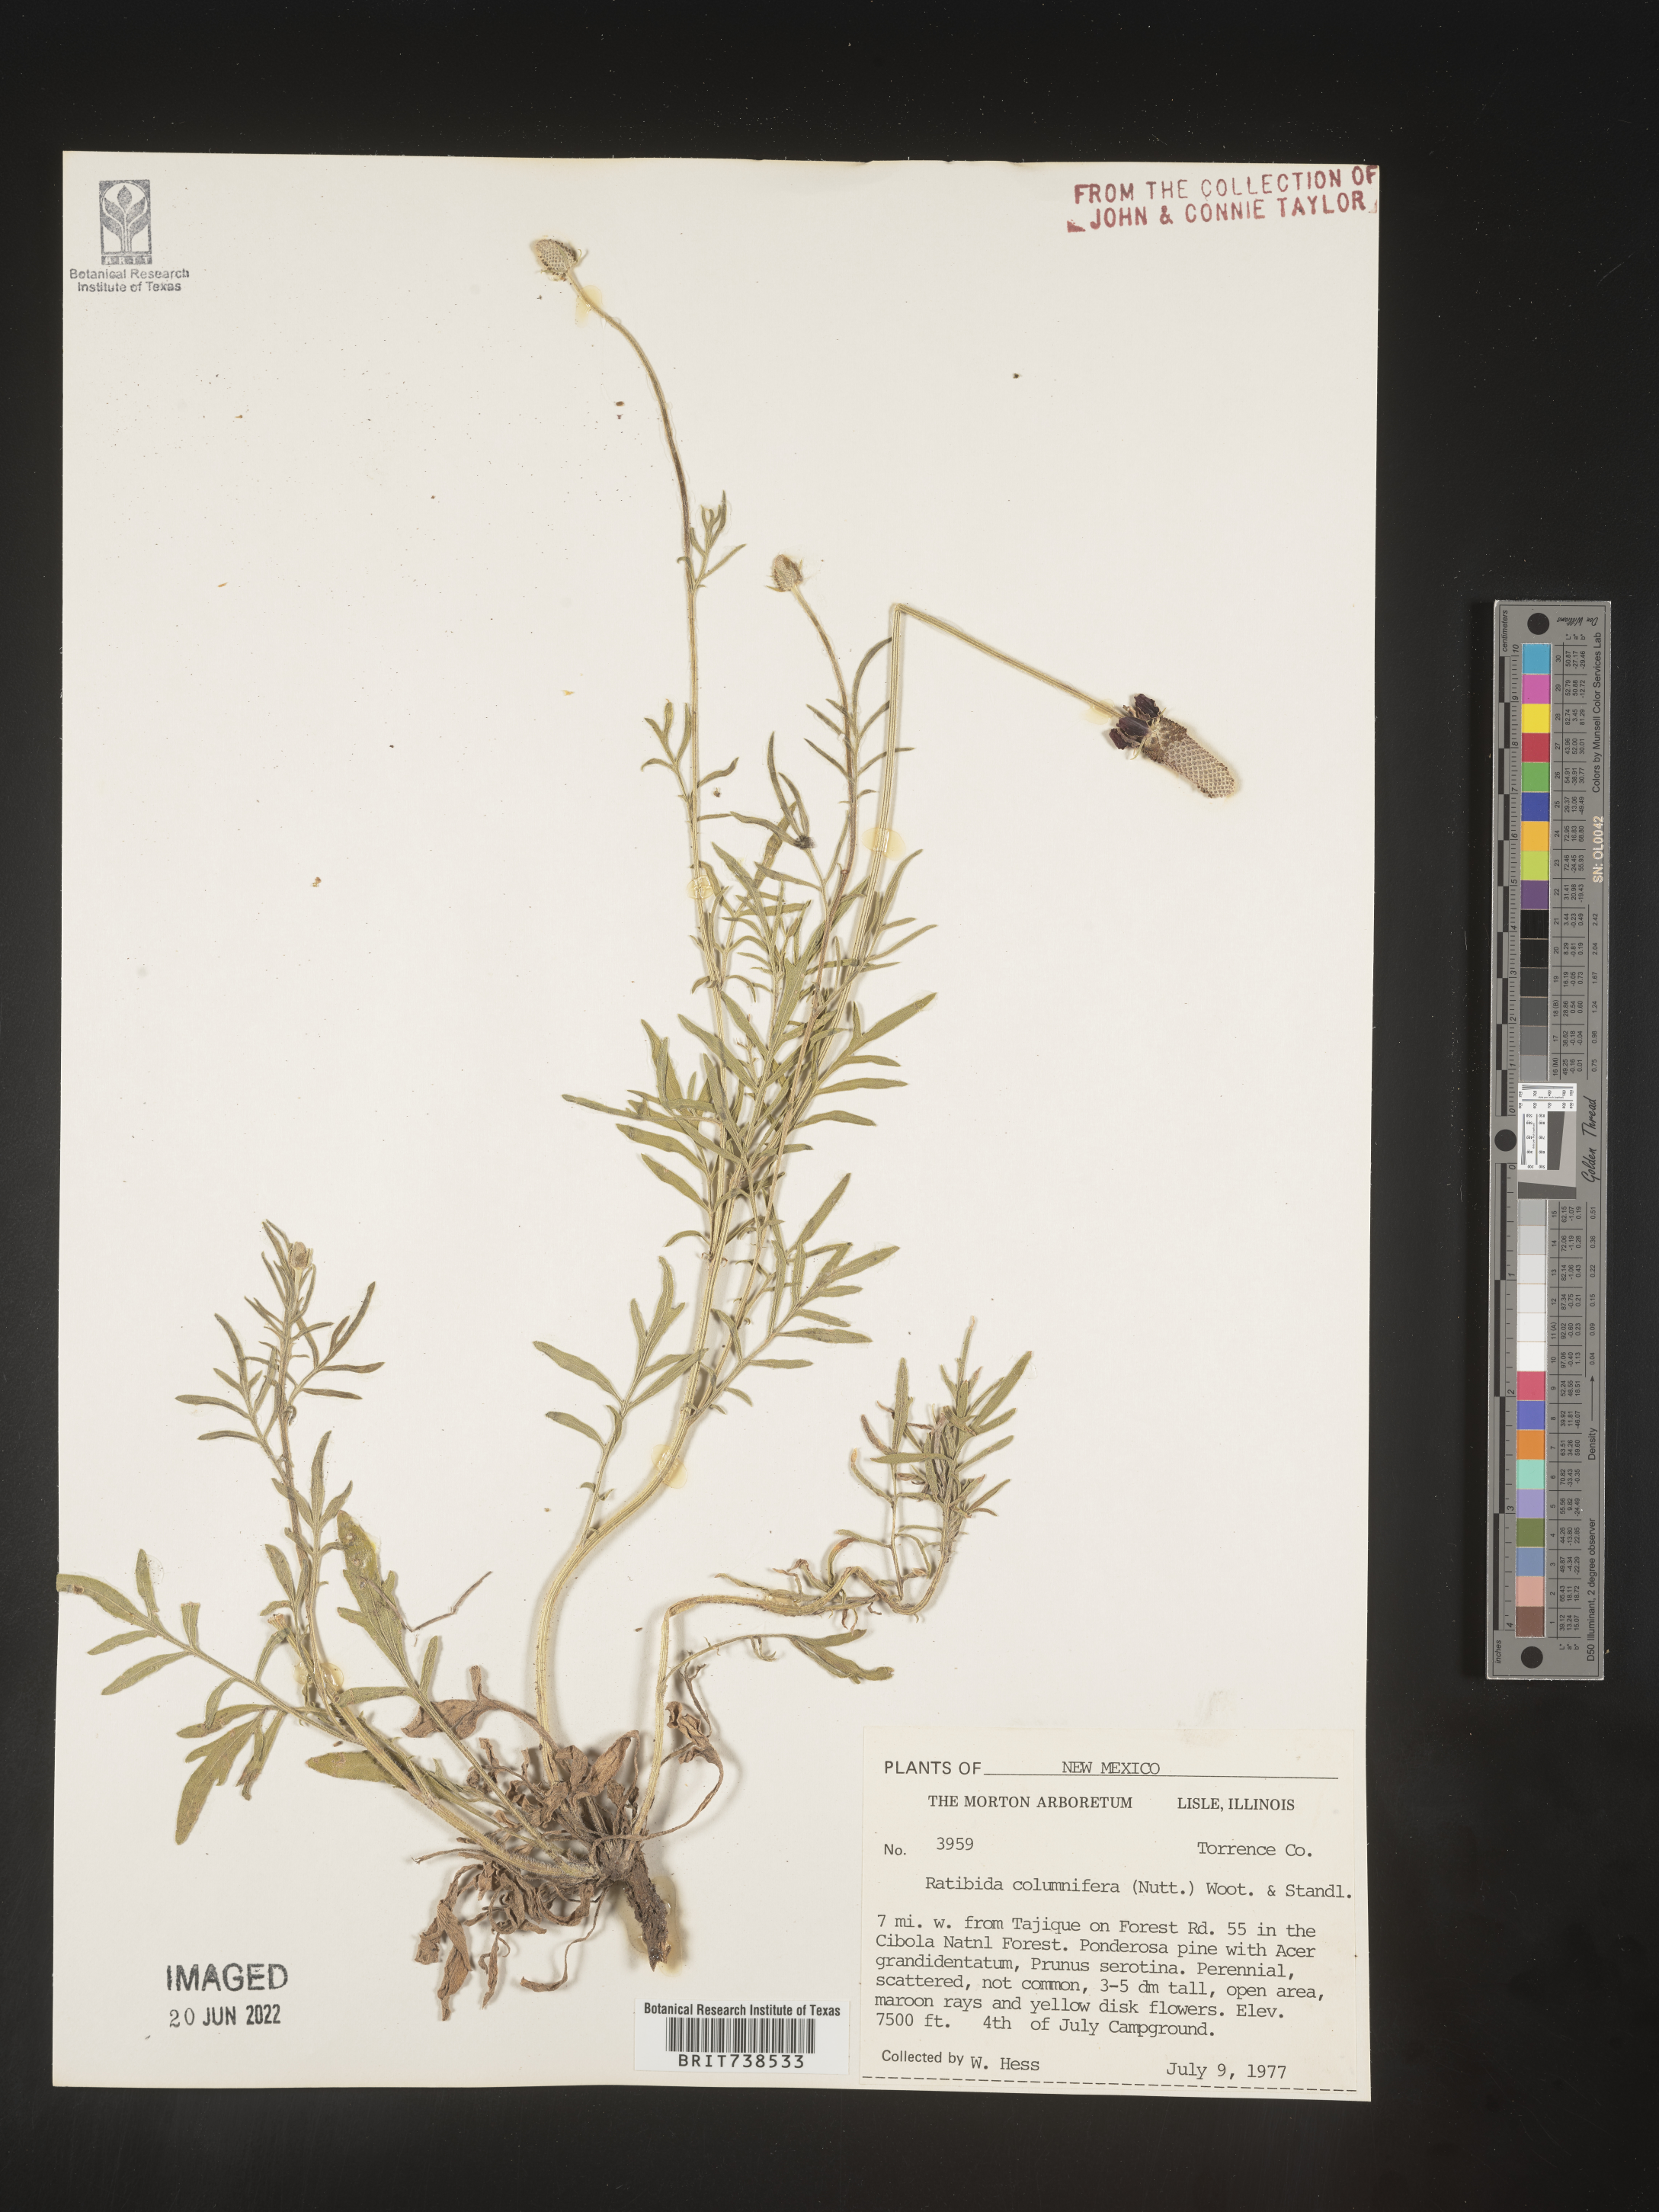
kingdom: Plantae
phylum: Tracheophyta
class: Magnoliopsida
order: Asterales
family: Asteraceae
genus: Ratibida
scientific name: Ratibida columnifera
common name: Prairie coneflower
